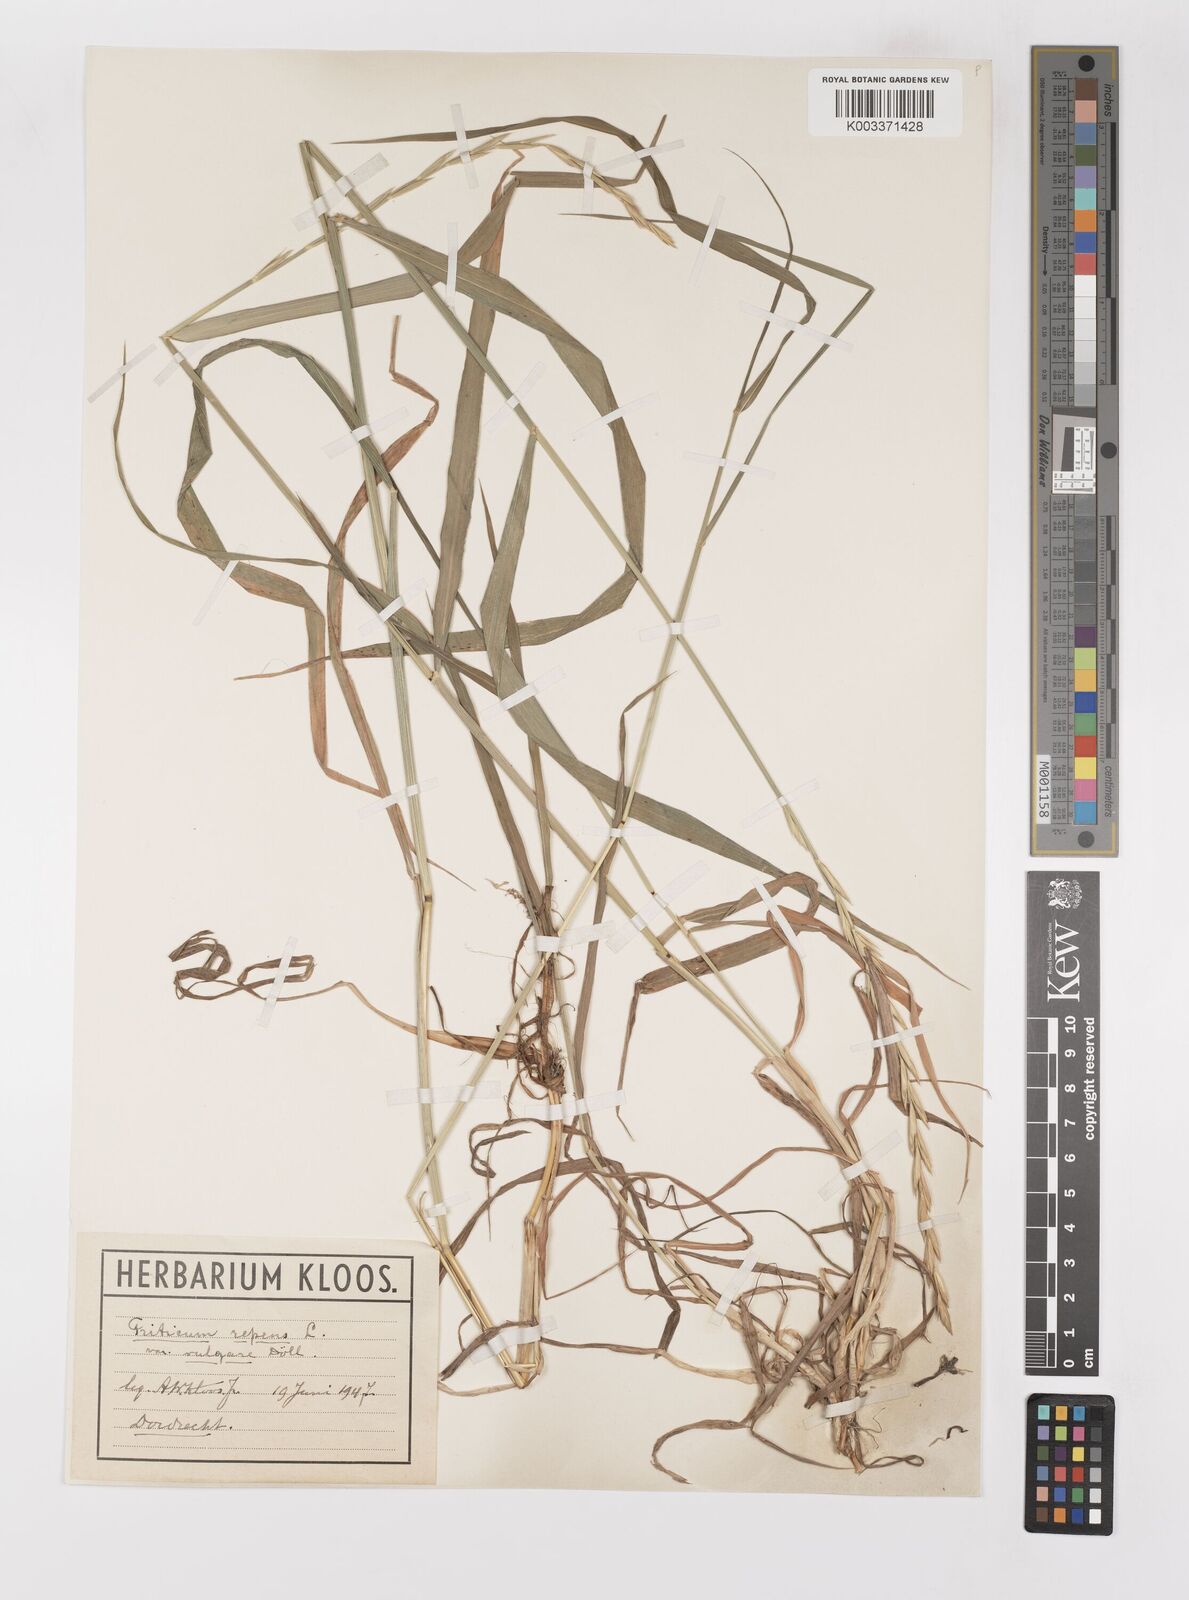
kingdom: Plantae
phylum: Tracheophyta
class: Liliopsida
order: Poales
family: Poaceae
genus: Elymus
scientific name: Elymus repens
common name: Quackgrass
